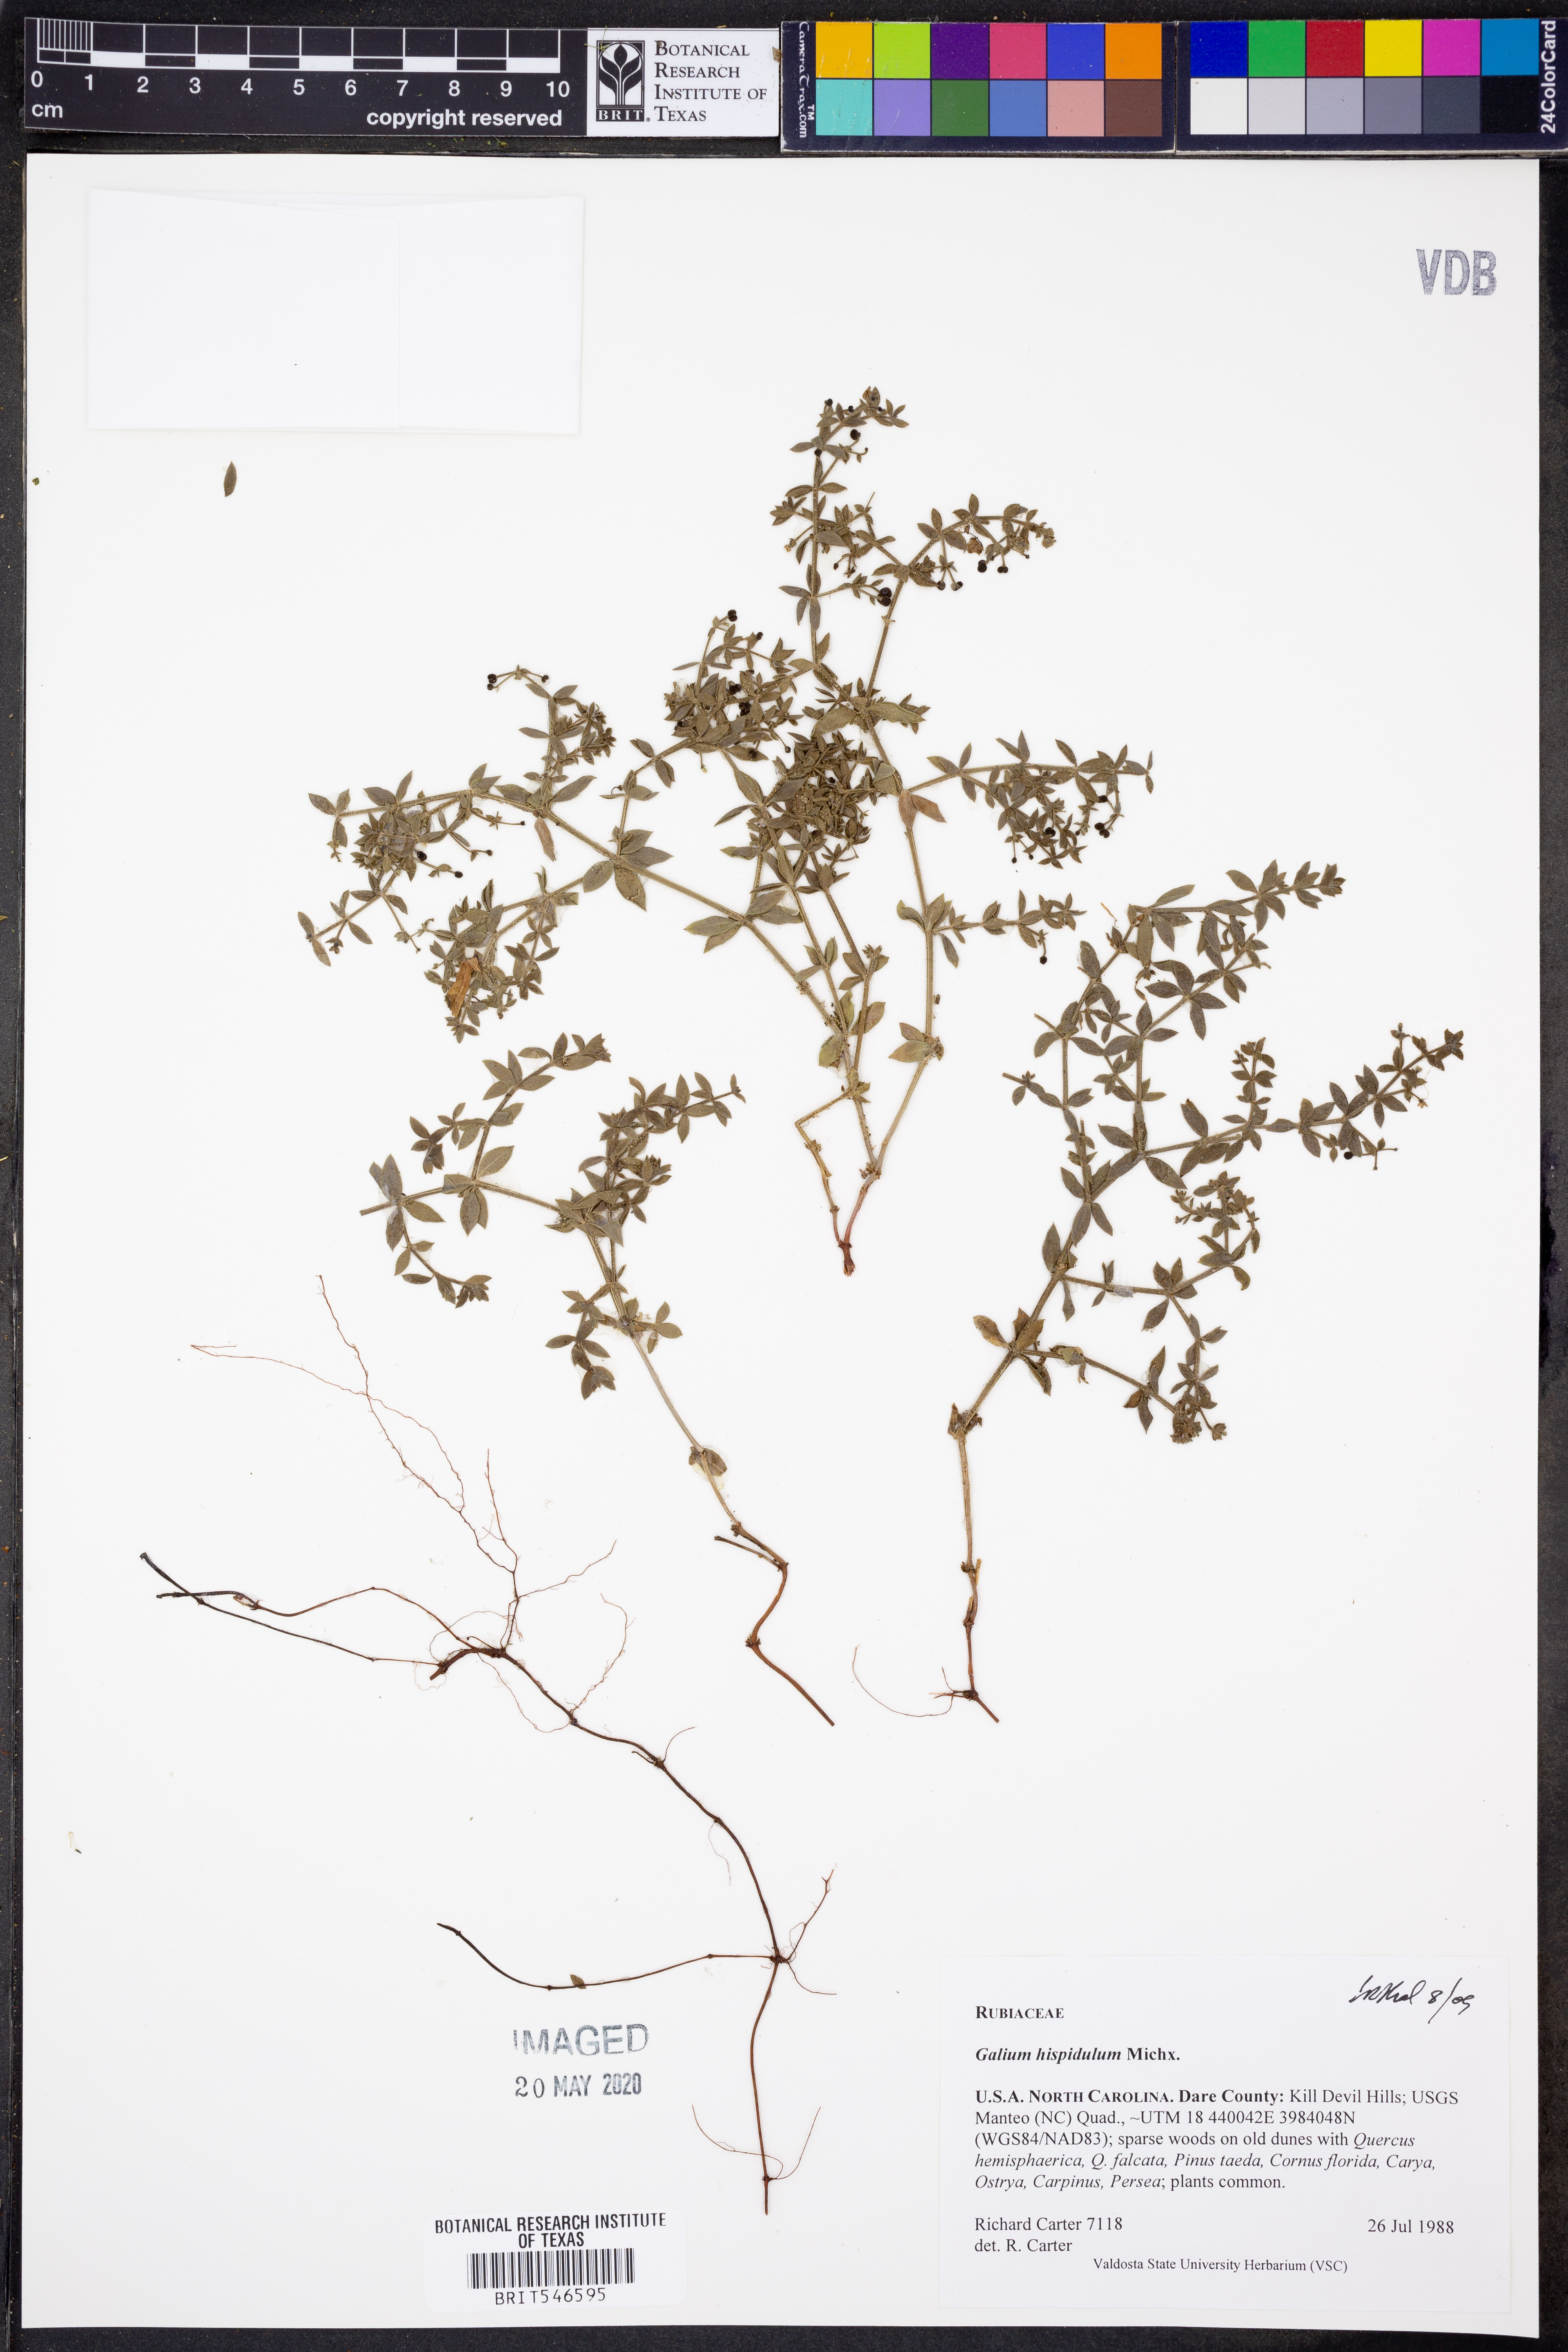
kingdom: Plantae
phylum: Tracheophyta
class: Magnoliopsida
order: Gentianales
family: Rubiaceae
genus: Galium
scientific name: Galium bermudense
